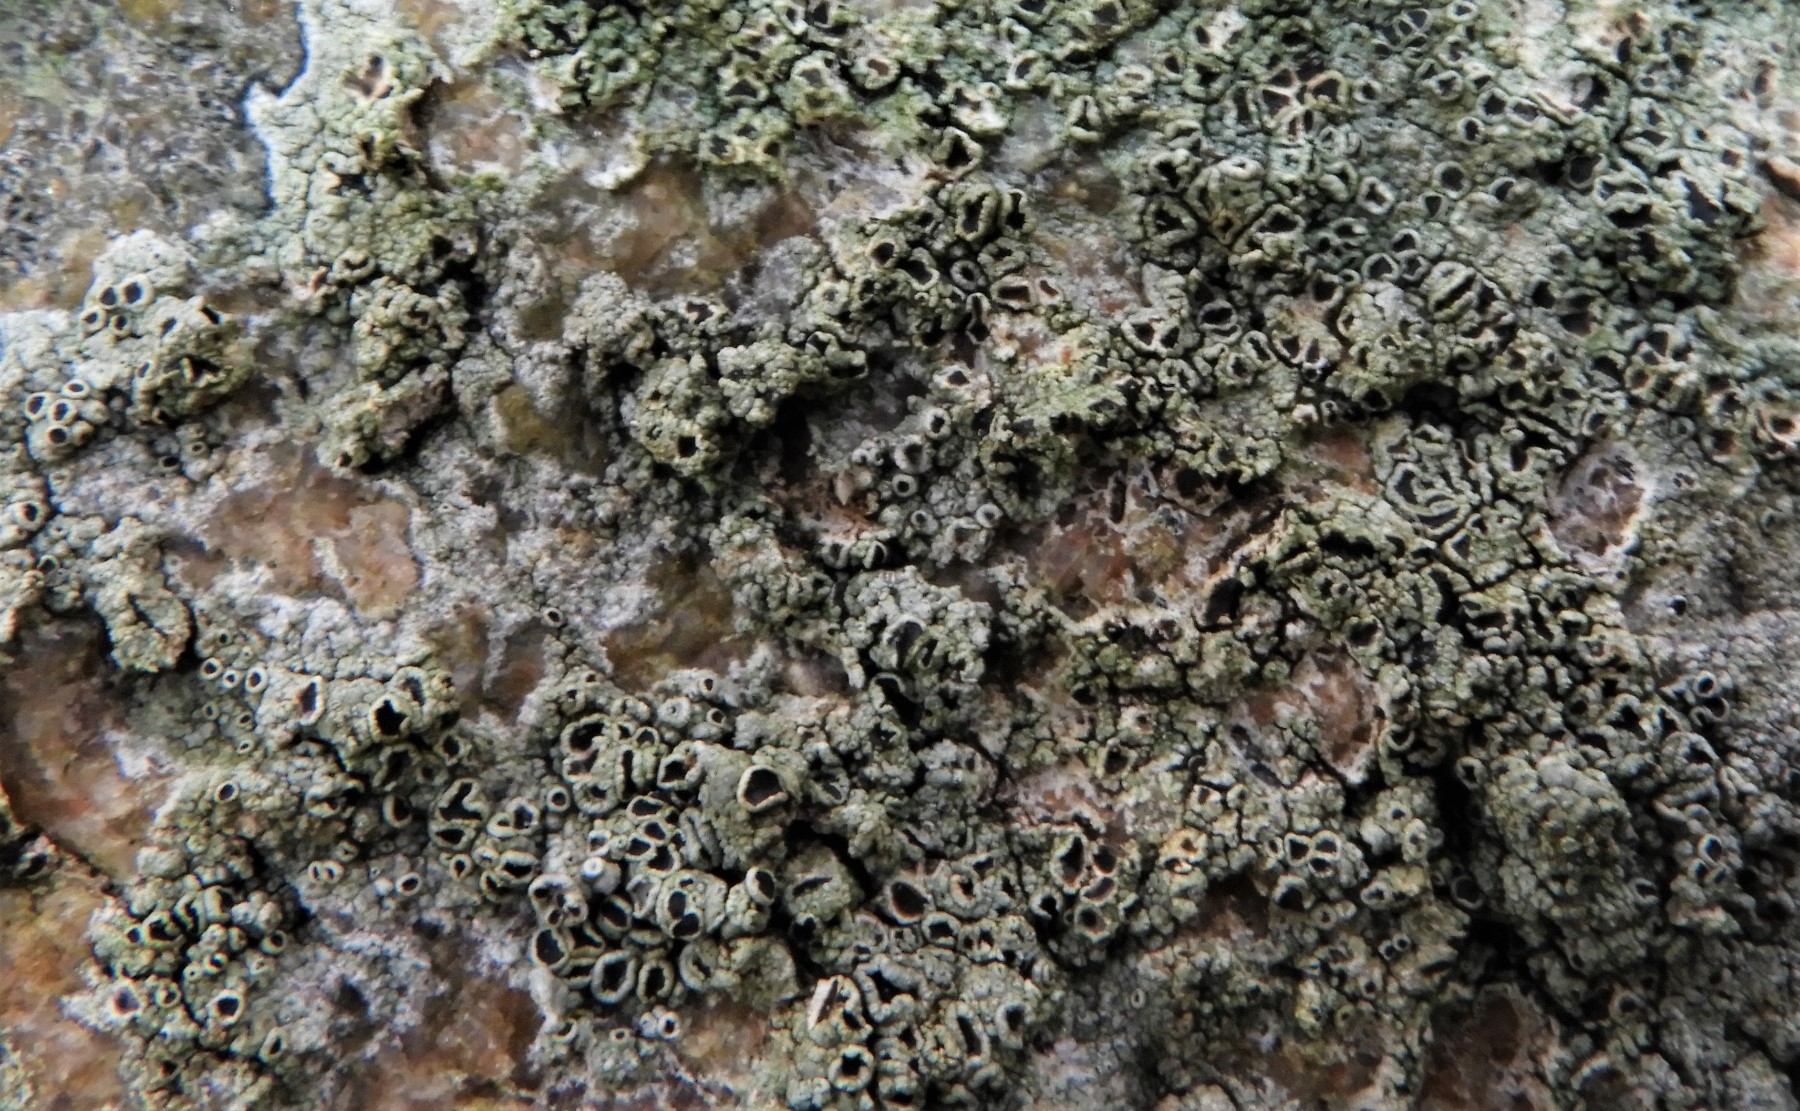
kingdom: Fungi
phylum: Ascomycota
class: Lecanoromycetes
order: Lecanorales
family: Tephromelataceae
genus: Tephromela
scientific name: Tephromela atra
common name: sortfrugtet kantskivelav
